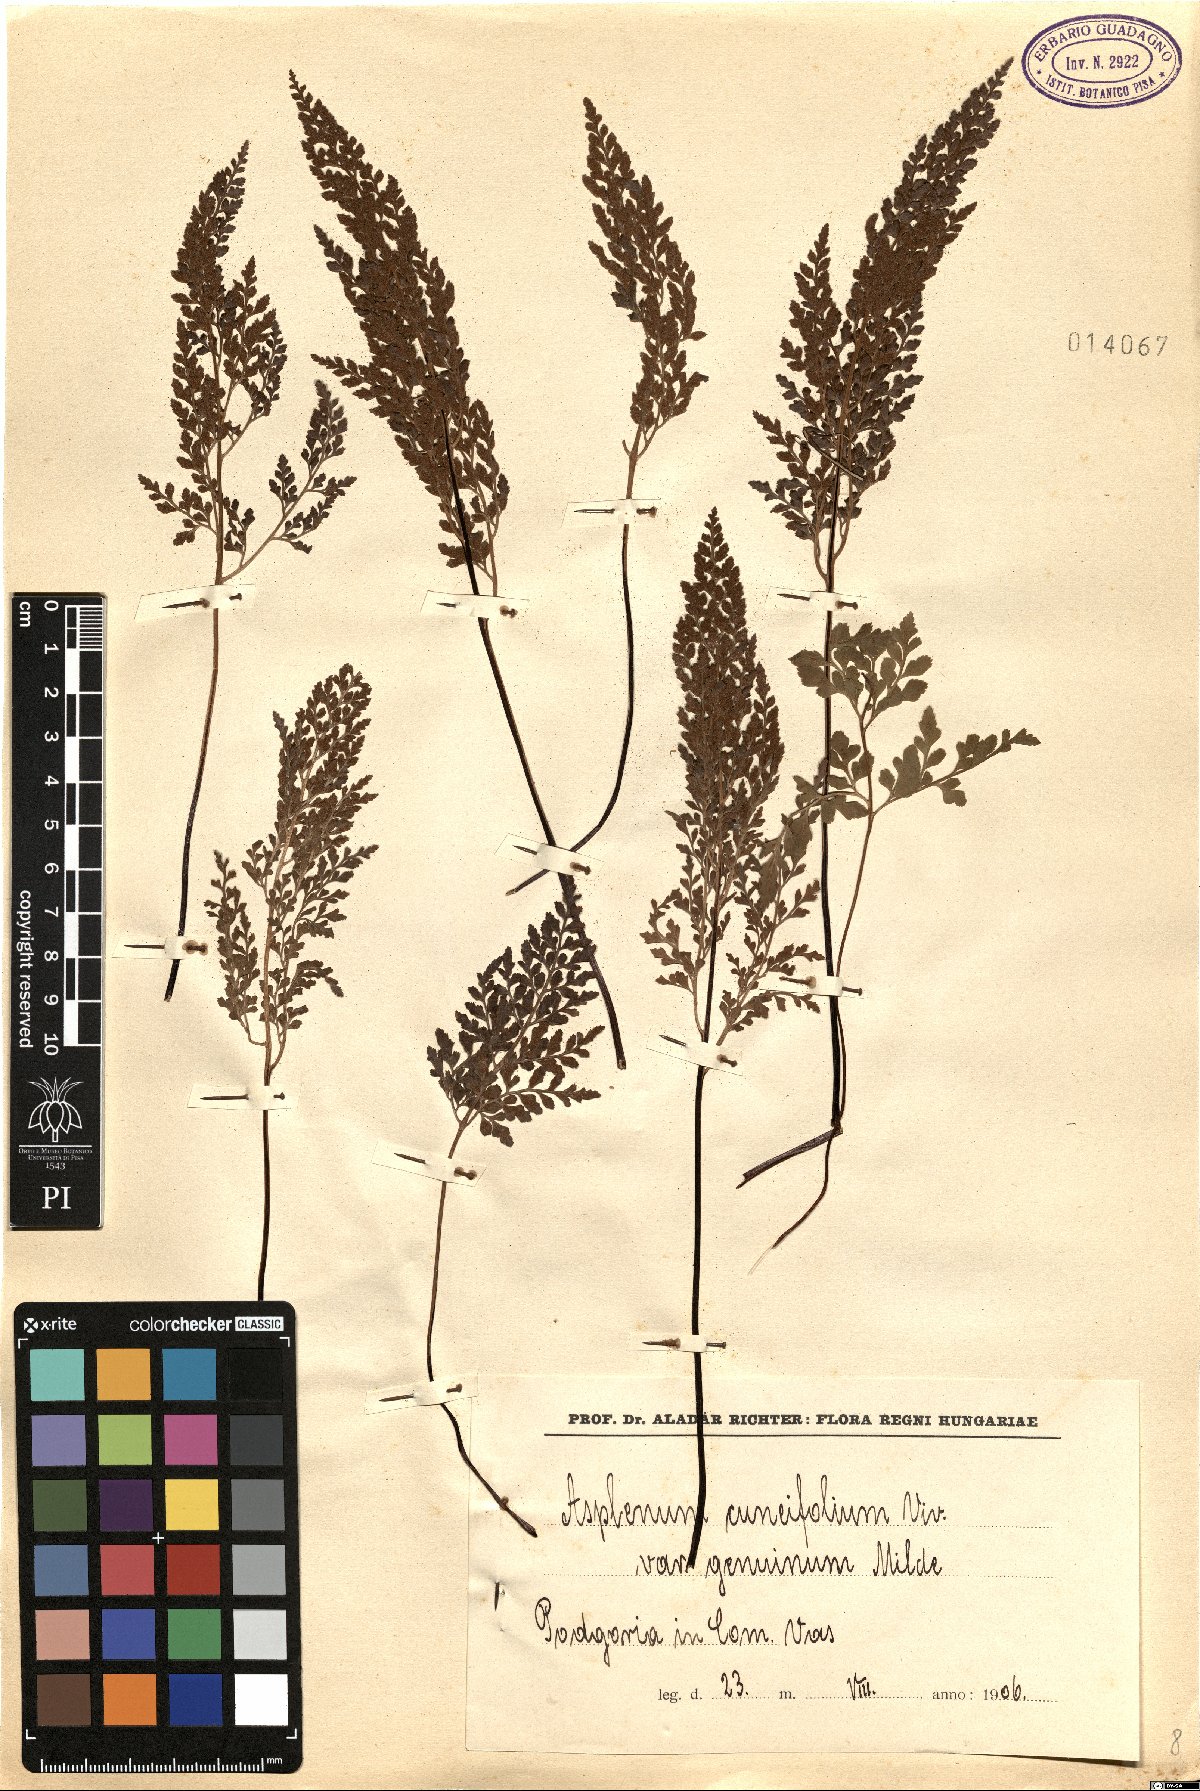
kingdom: Plantae
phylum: Tracheophyta
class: Polypodiopsida
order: Polypodiales
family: Aspleniaceae
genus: Asplenium
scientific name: Asplenium cuneifolium
